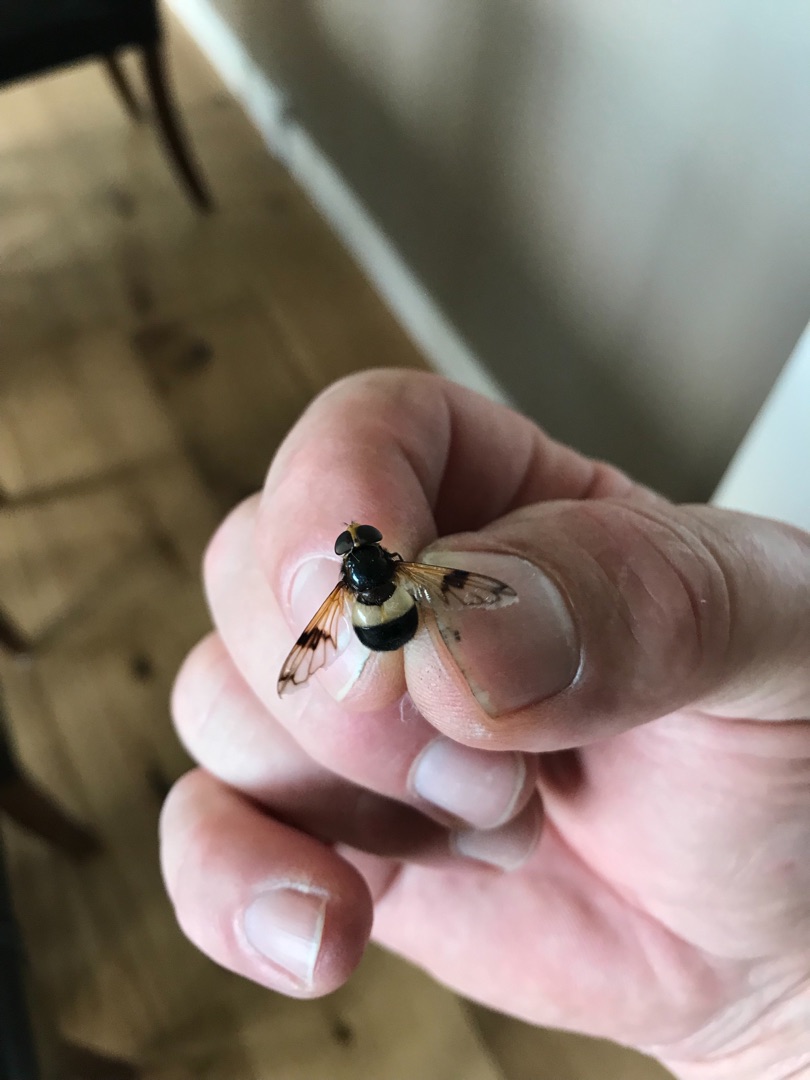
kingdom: Animalia
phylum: Arthropoda
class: Insecta
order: Diptera
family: Syrphidae
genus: Volucella
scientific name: Volucella pellucens
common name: Hvidbåndet humlesvirreflue
